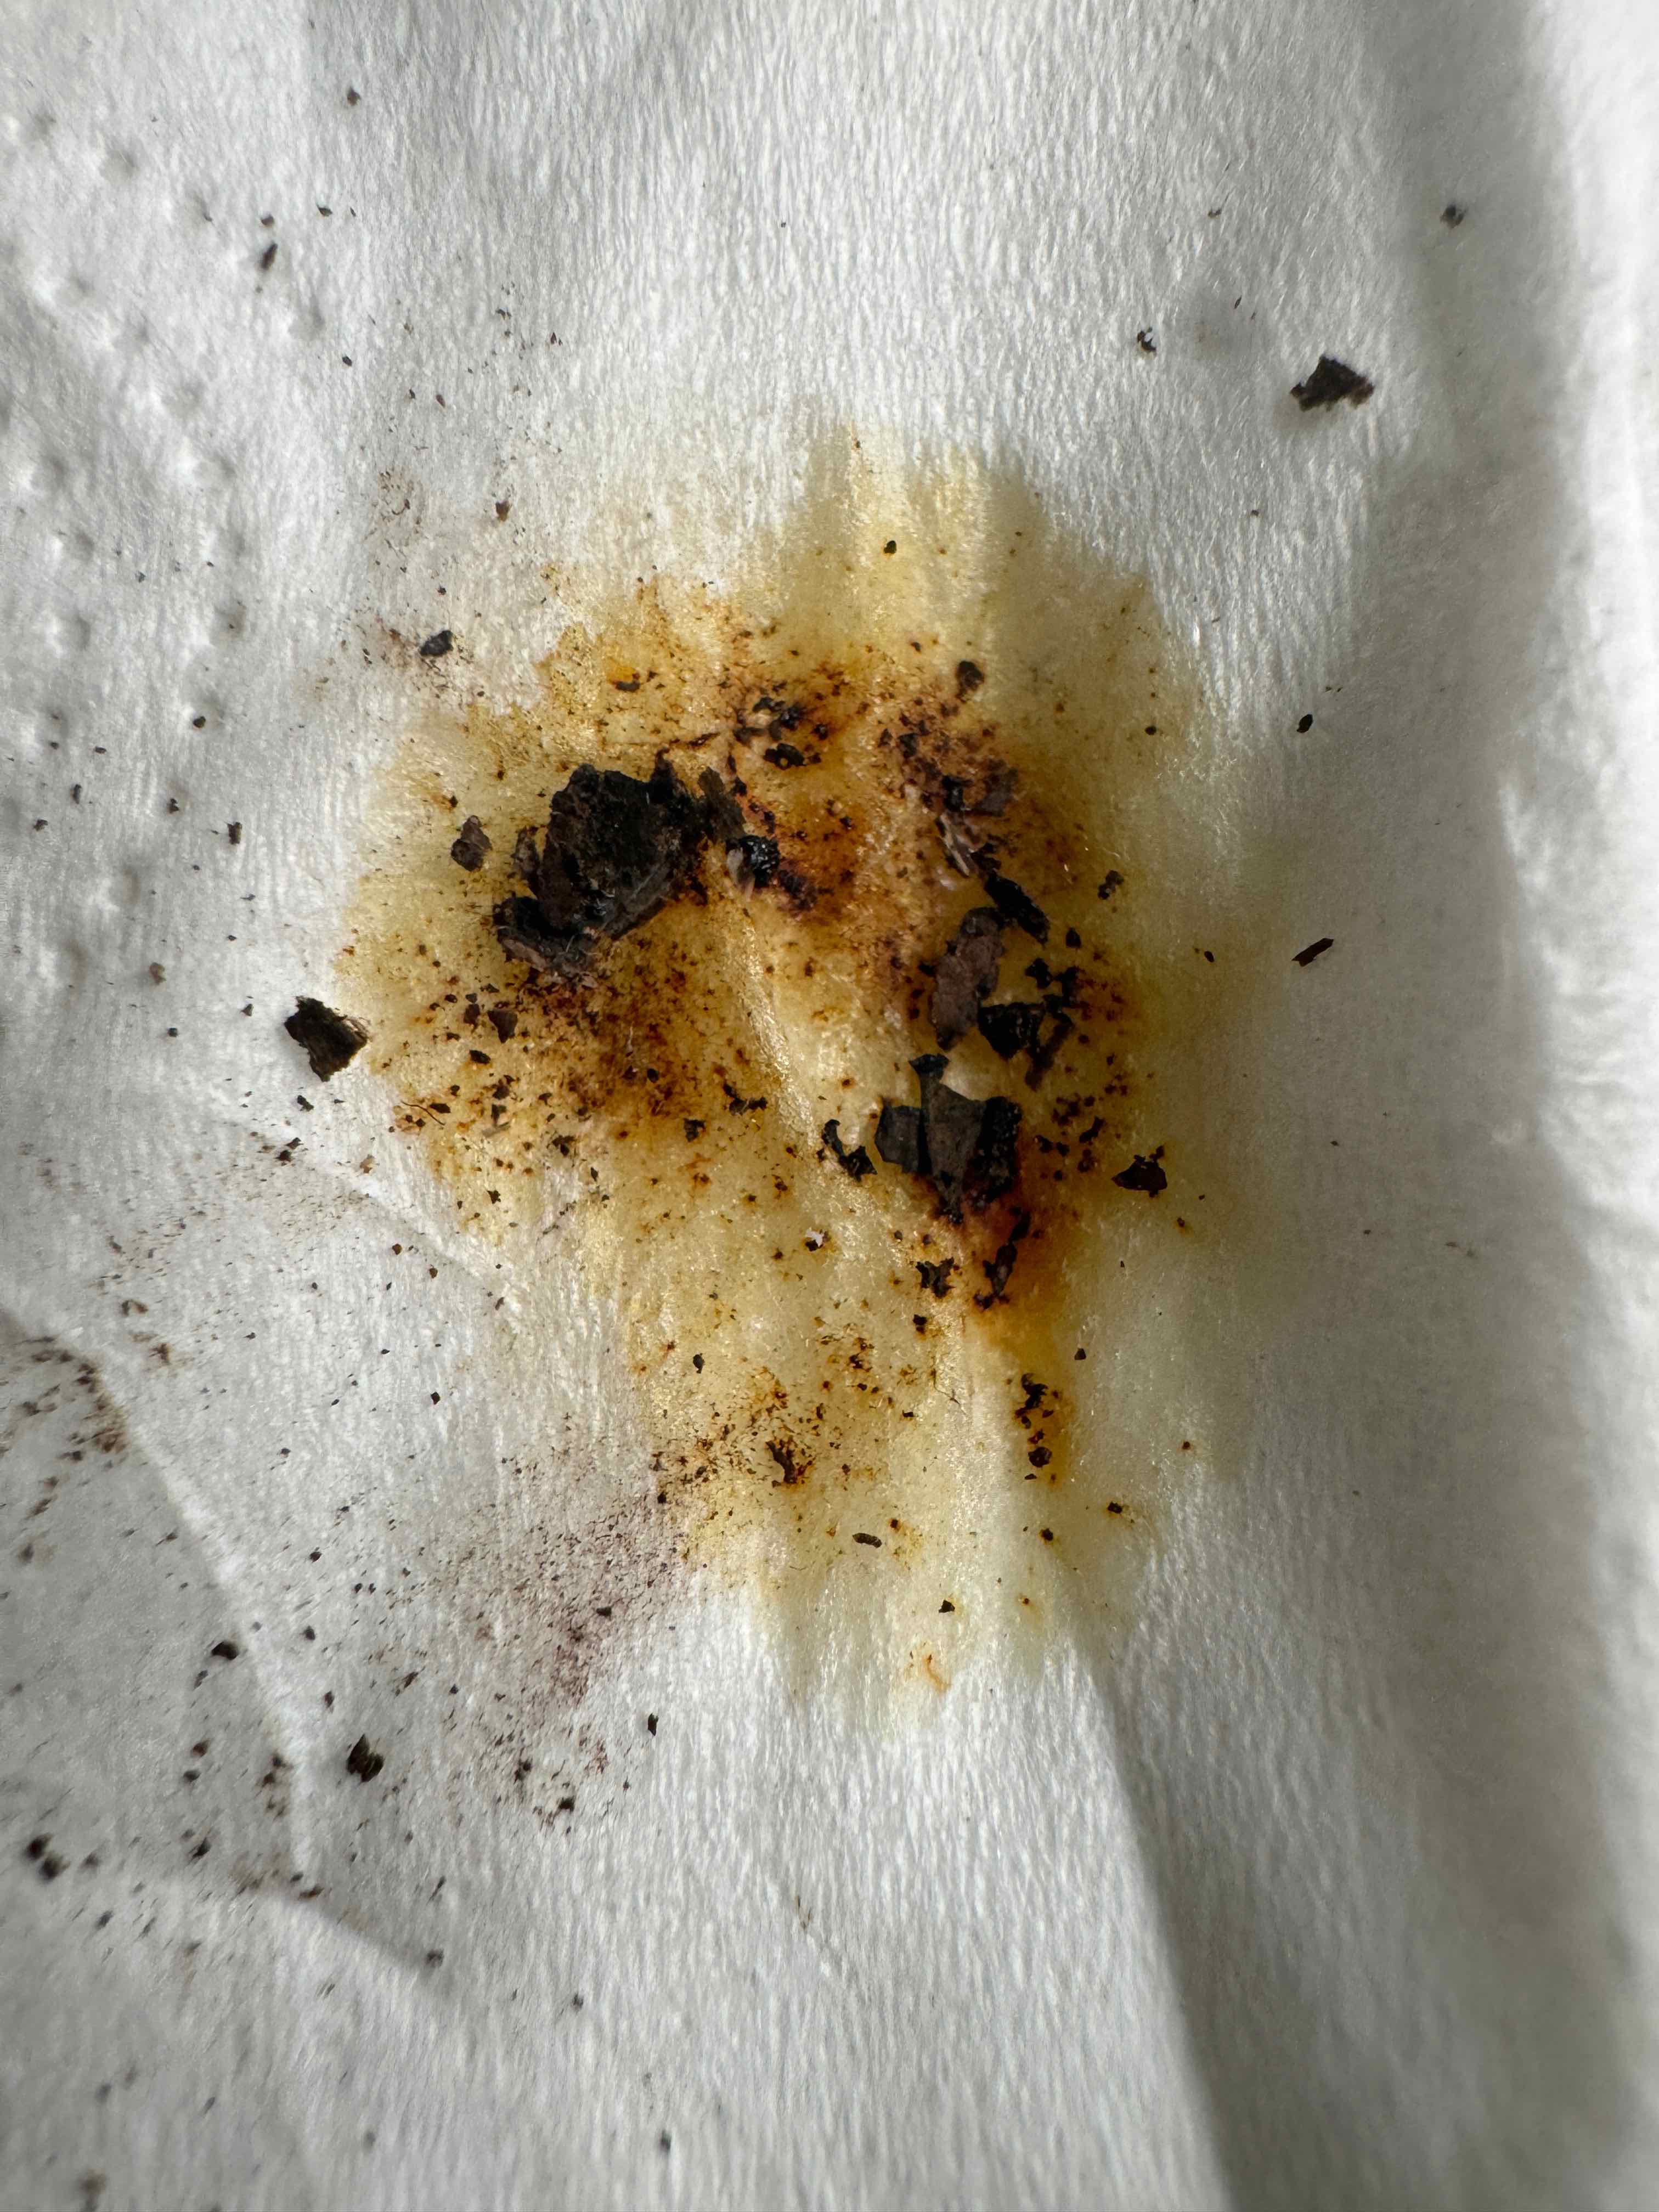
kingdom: Fungi
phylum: Ascomycota
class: Sordariomycetes
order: Xylariales
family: Hypoxylaceae
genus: Hypoxylon
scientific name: Hypoxylon petriniae
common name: nedsænket kulbær
